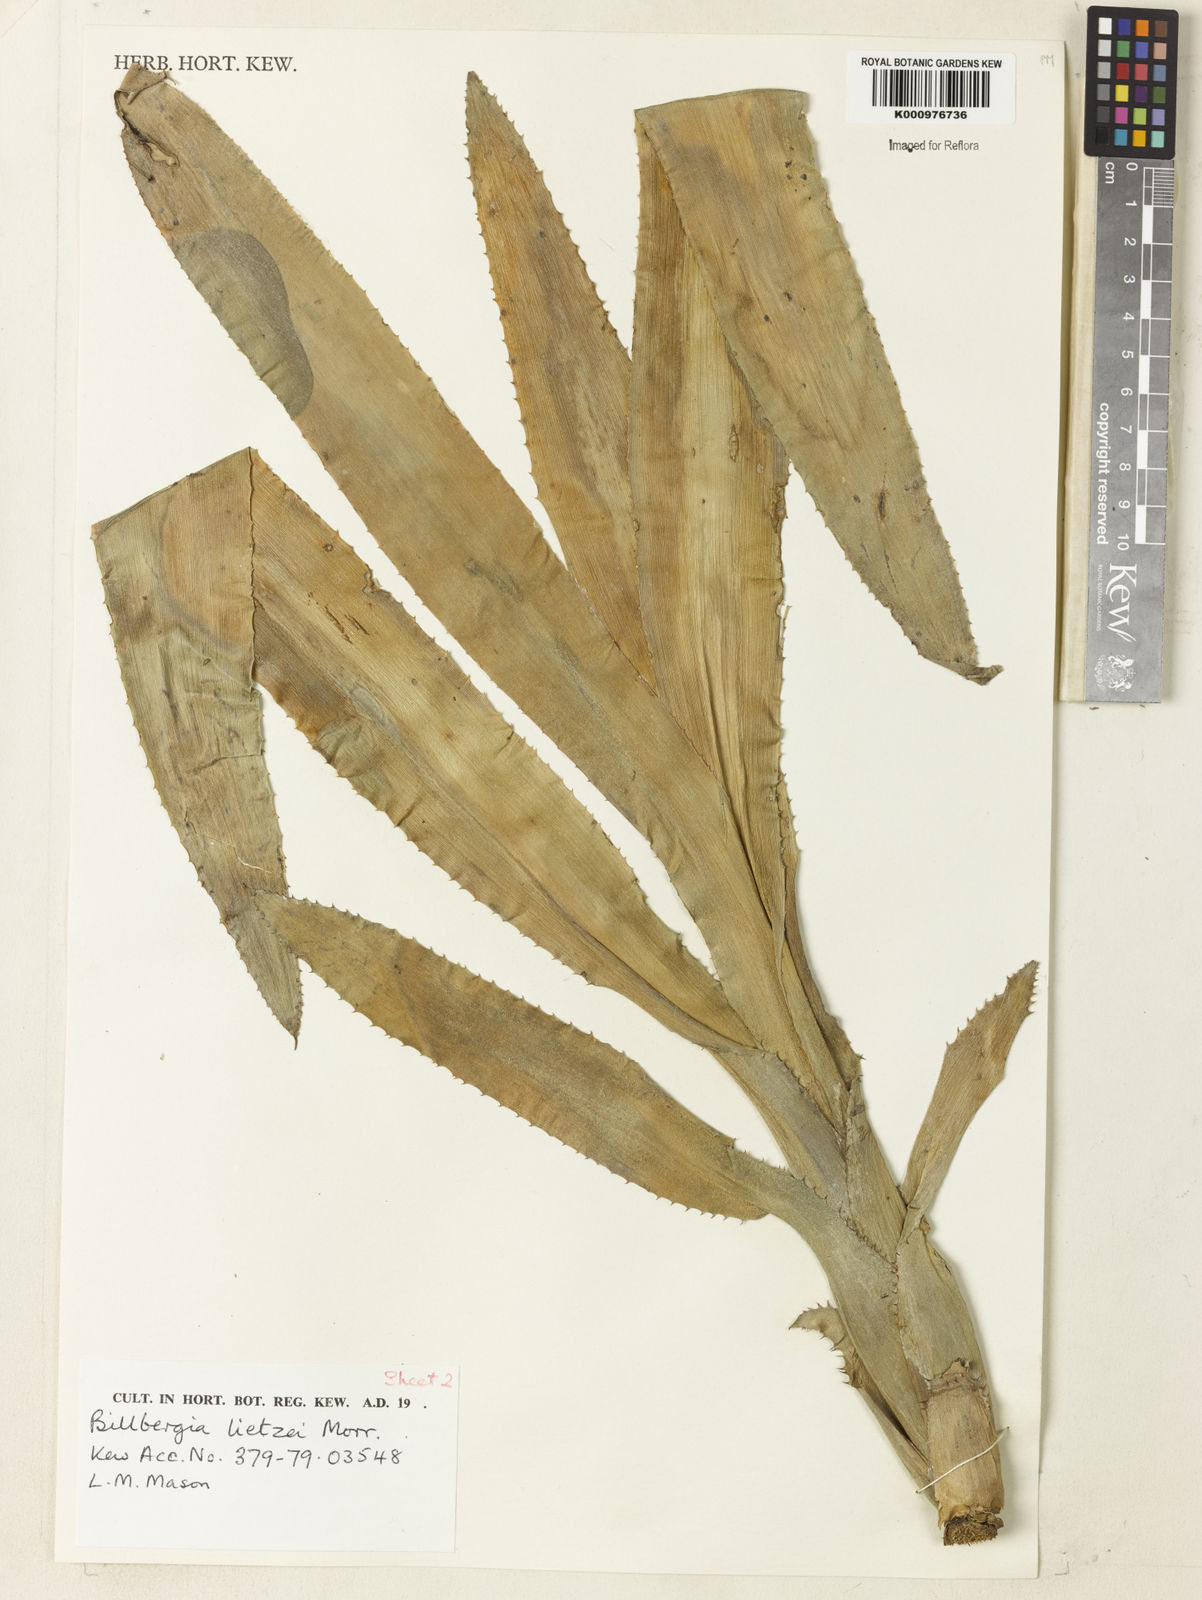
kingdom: Plantae
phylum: Tracheophyta
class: Liliopsida
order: Poales
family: Bromeliaceae
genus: Billbergia
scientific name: Billbergia lietzei
